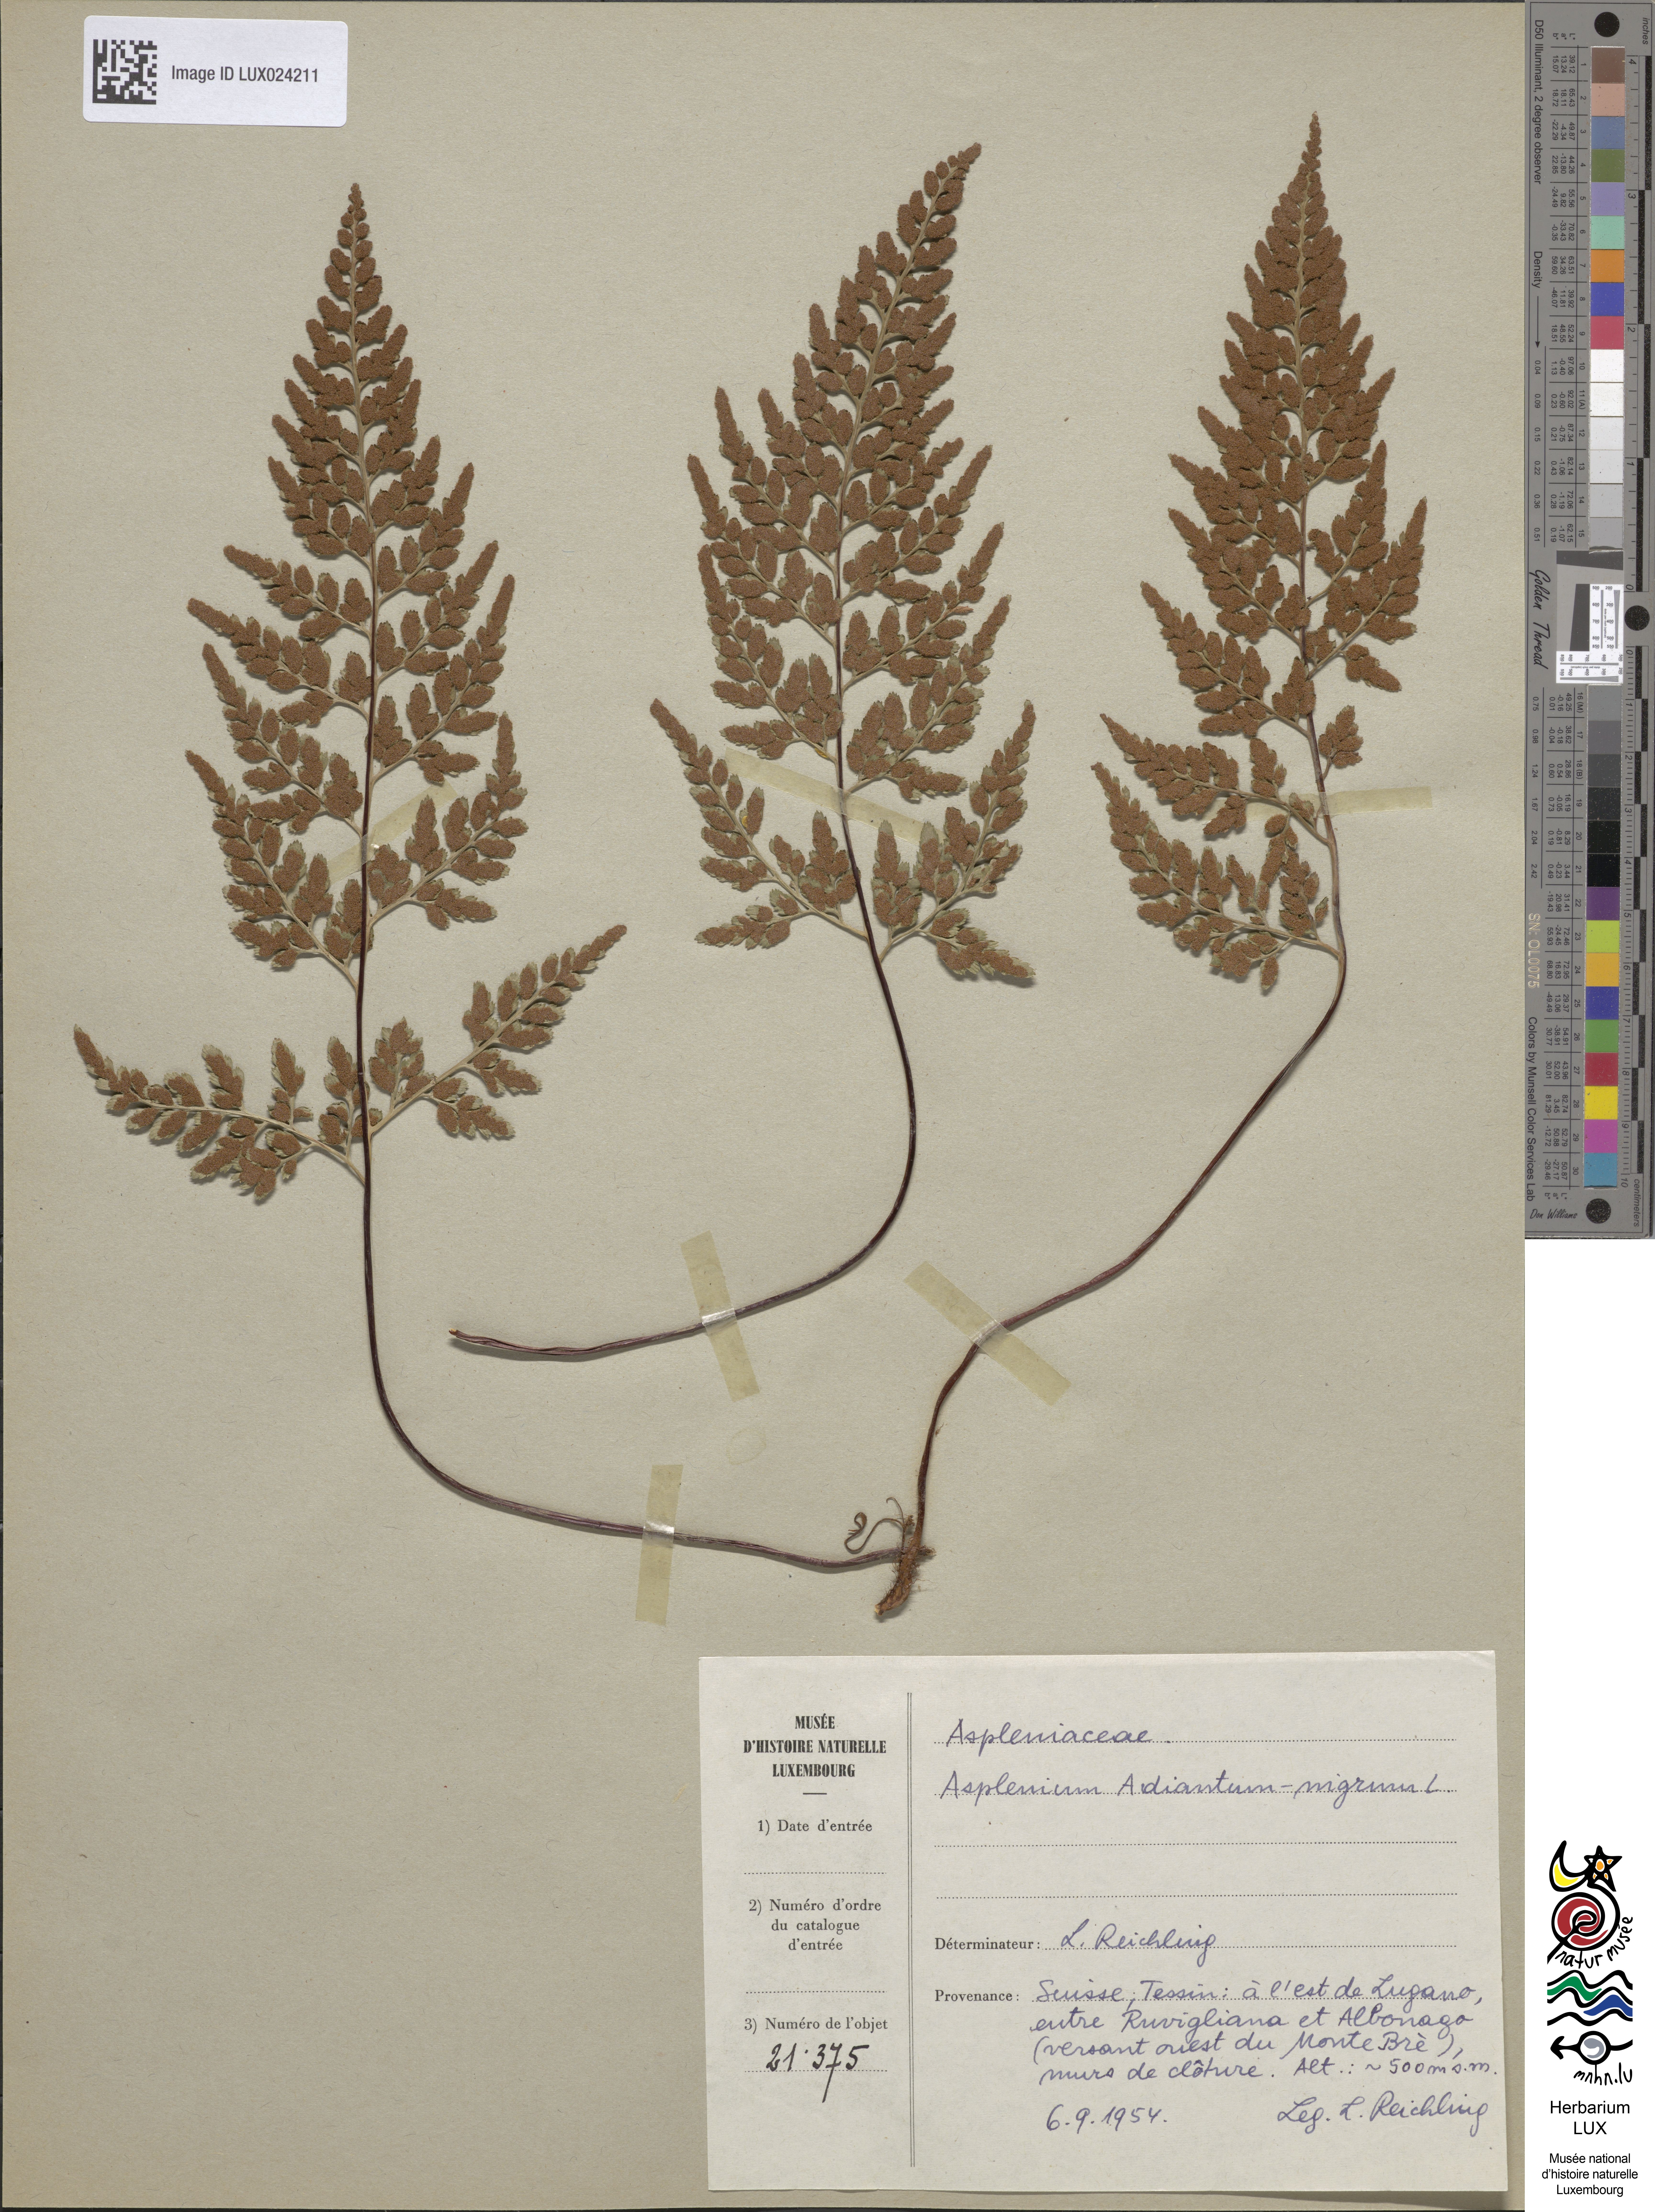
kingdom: Plantae
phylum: Tracheophyta
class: Polypodiopsida
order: Polypodiales
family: Aspleniaceae
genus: Asplenium
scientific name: Asplenium adiantum-nigrum
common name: Black spleenwort
